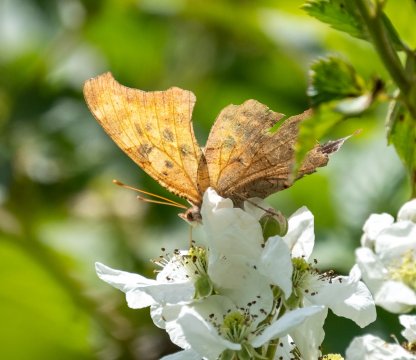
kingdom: Animalia
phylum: Arthropoda
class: Insecta
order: Lepidoptera
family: Nymphalidae
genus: Polygonia
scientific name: Polygonia interrogationis
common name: Question Mark
